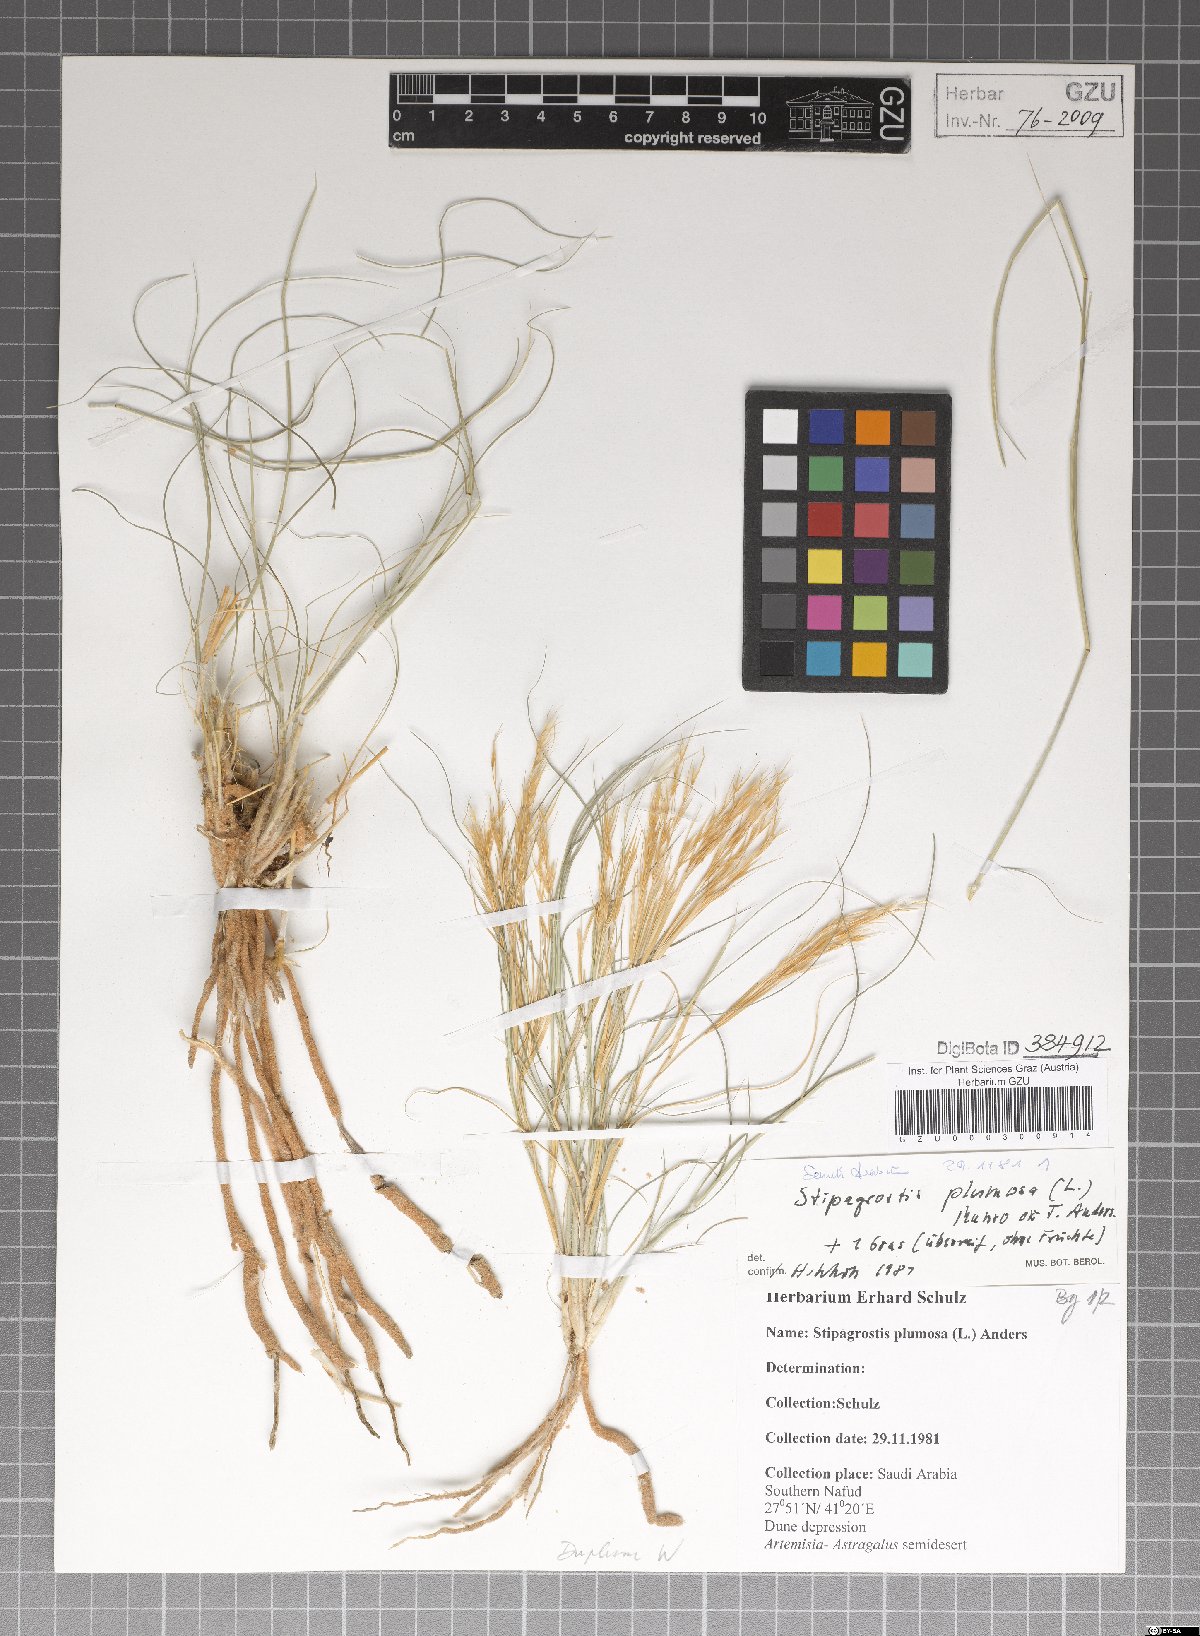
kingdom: Plantae
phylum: Tracheophyta
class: Liliopsida
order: Poales
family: Poaceae
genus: Stipagrostis
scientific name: Stipagrostis plumosa
